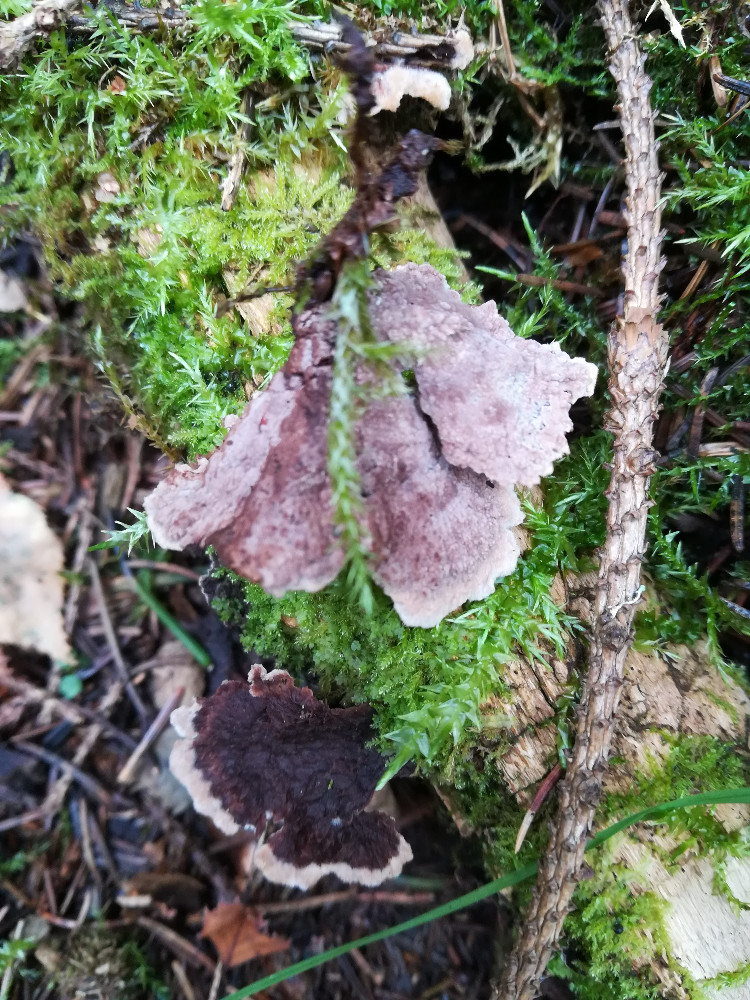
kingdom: Fungi
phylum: Basidiomycota
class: Agaricomycetes
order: Thelephorales
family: Thelephoraceae
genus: Thelephora
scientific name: Thelephora terrestris
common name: fliget frynsesvamp
